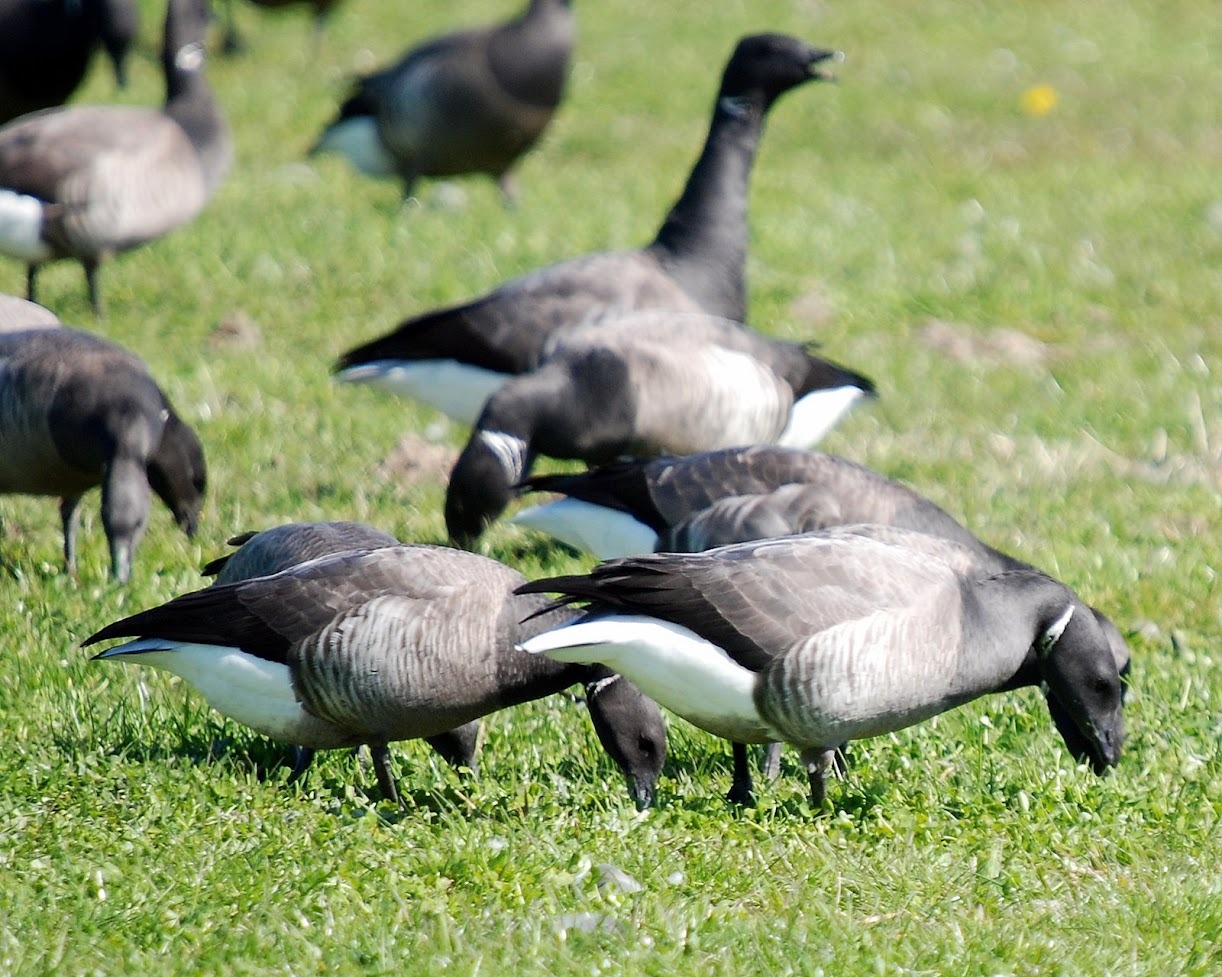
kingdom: Animalia
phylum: Chordata
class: Aves
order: Anseriformes
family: Anatidae
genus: Branta
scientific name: Branta bernicla
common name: Knortegås
